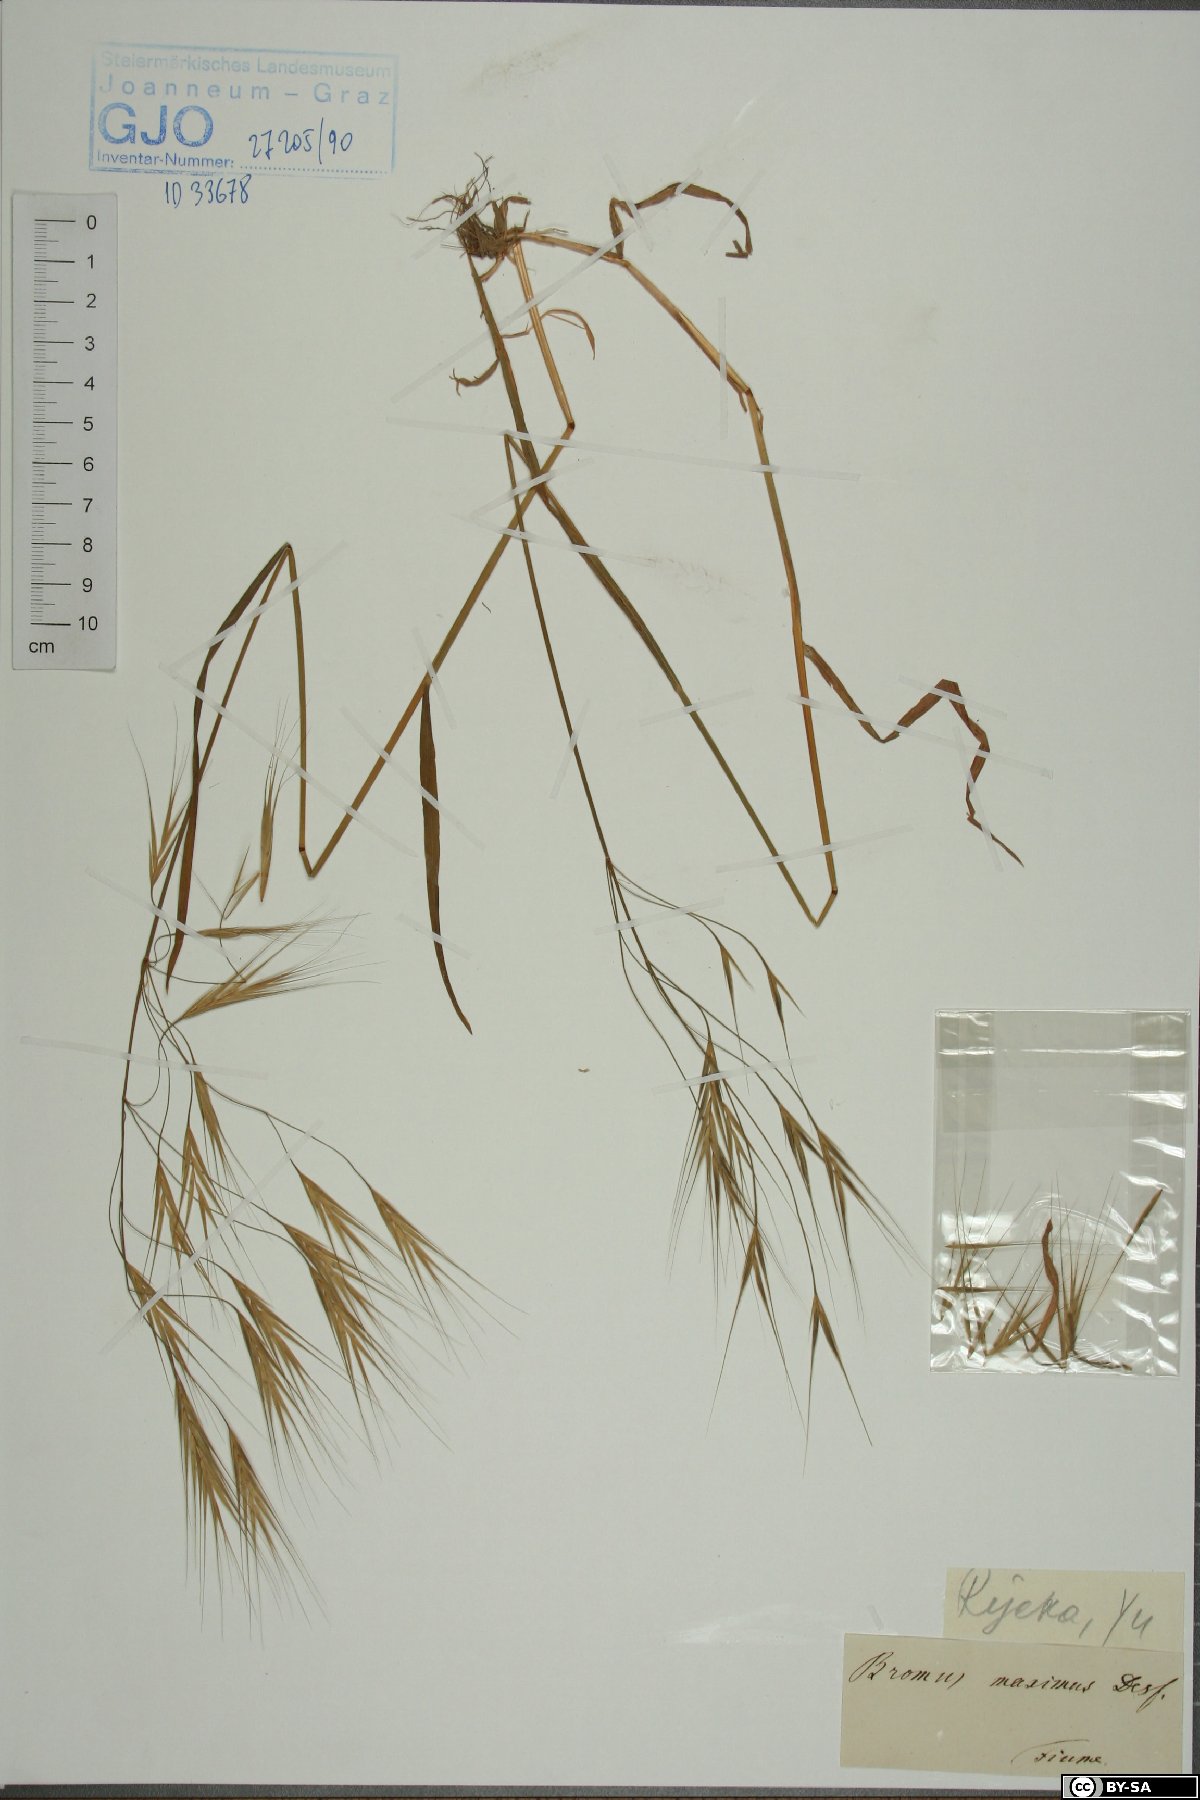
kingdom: Plantae
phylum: Tracheophyta
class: Liliopsida
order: Poales
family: Poaceae
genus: Bromus
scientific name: Bromus rigidus
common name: Ripgut brome
